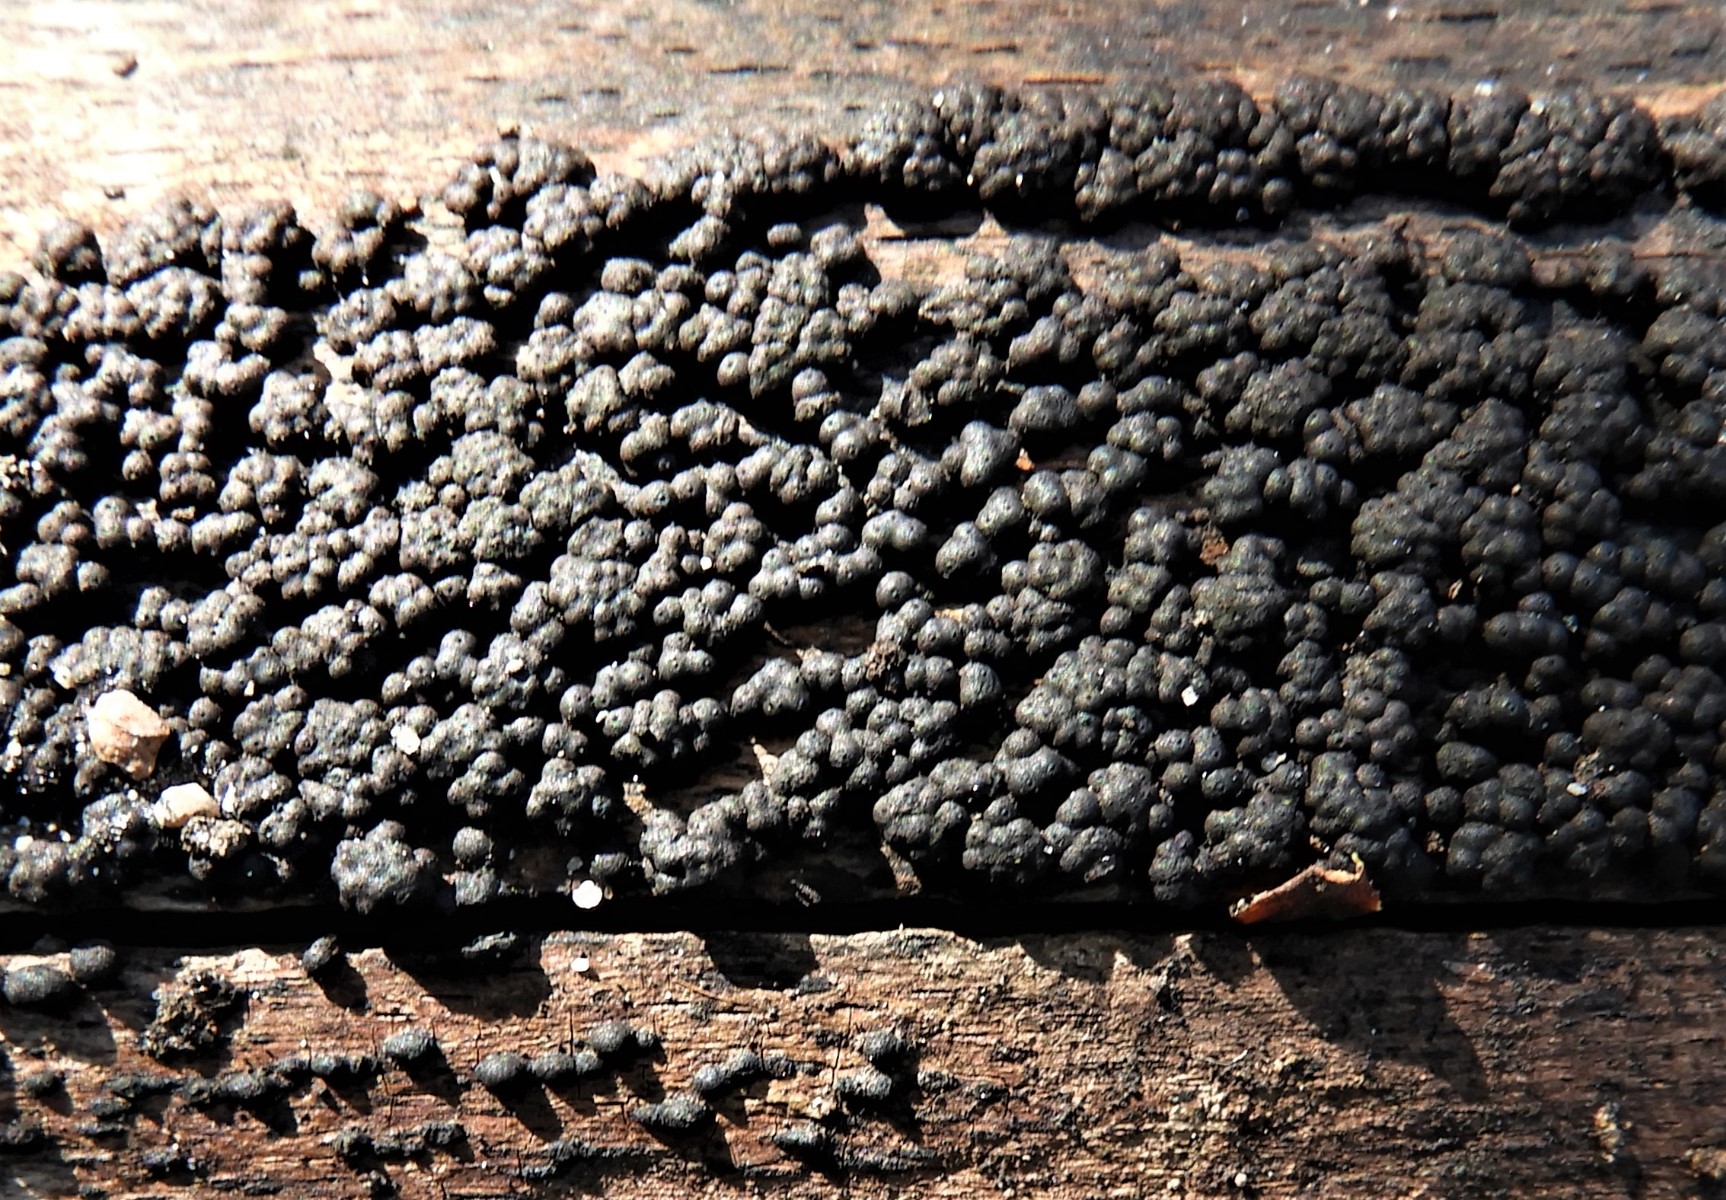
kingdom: Fungi
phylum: Ascomycota
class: Sordariomycetes
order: Xylariales
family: Hypoxylaceae
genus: Jackrogersella
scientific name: Jackrogersella cohaerens
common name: sammenflydende kulbær
